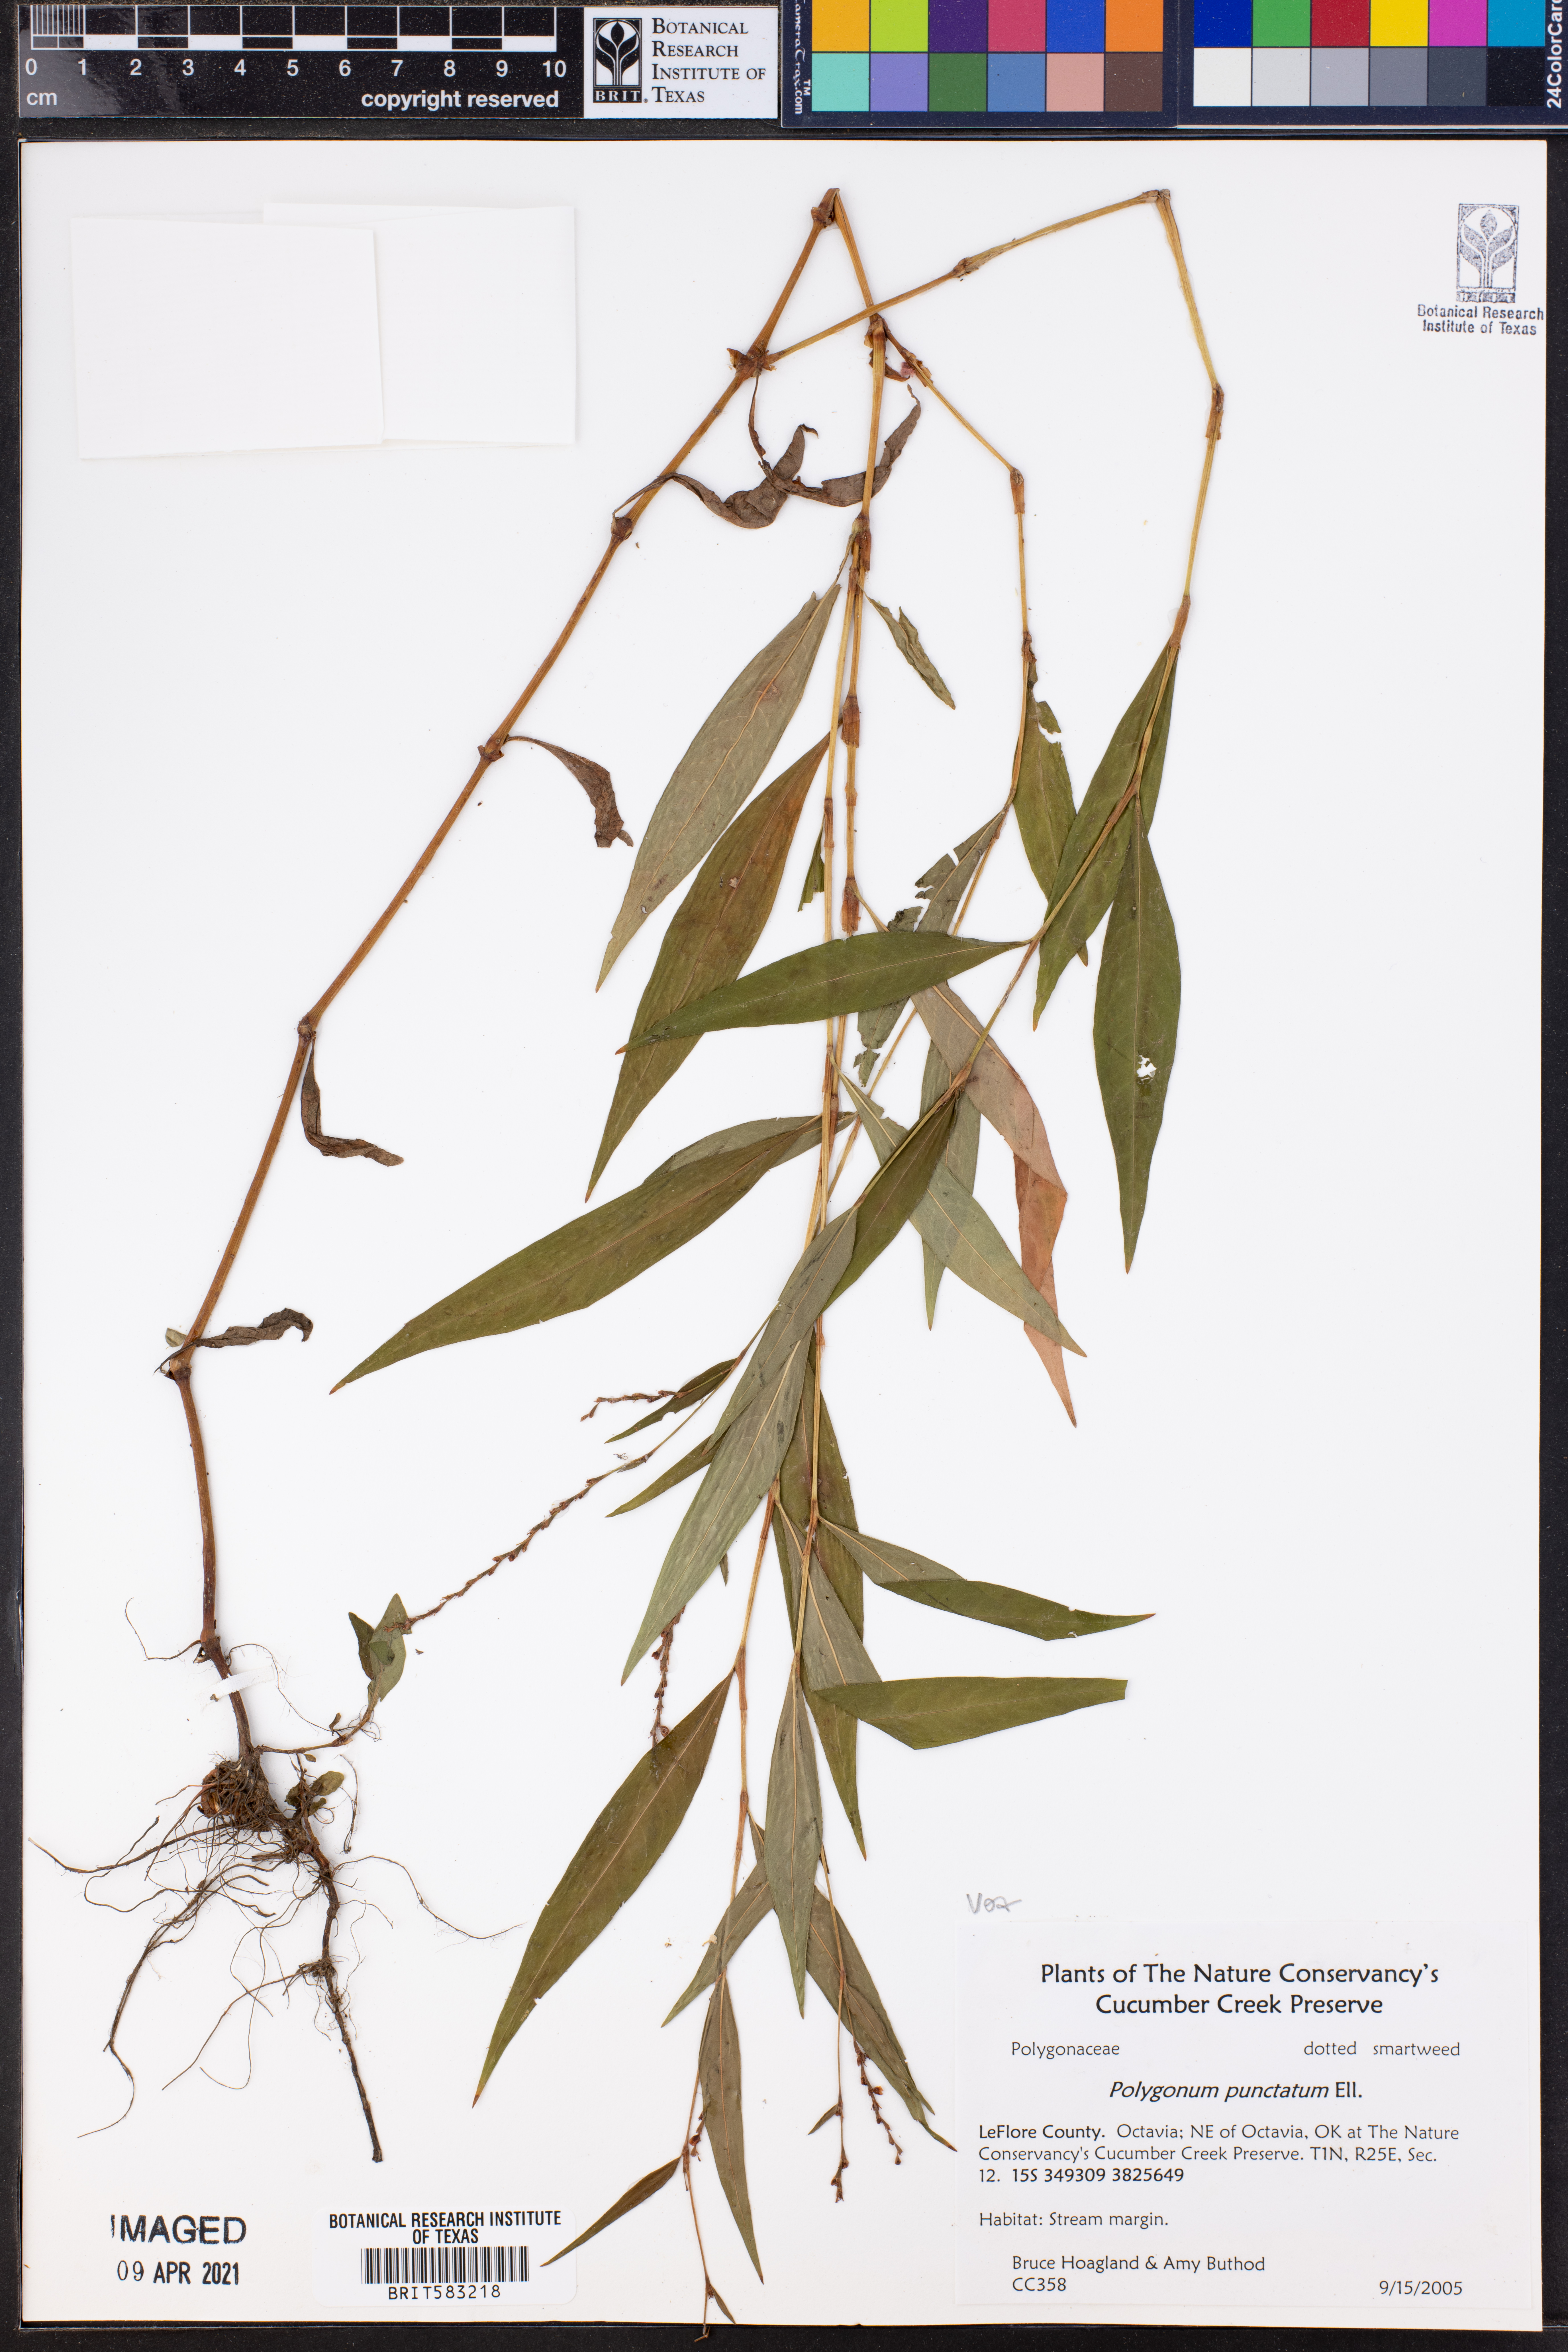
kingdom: Plantae
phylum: Tracheophyta
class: Magnoliopsida
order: Caryophyllales
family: Polygonaceae
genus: Persicaria
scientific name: Persicaria punctata
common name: Dotted smartweed
